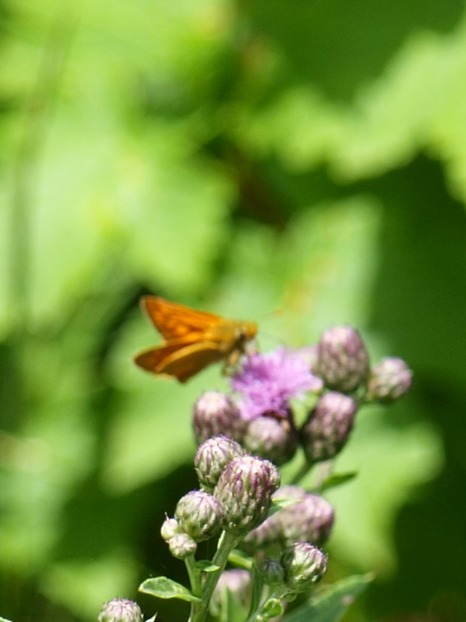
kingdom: Animalia
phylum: Arthropoda
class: Insecta
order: Lepidoptera
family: Hesperiidae
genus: Ochlodes
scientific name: Ochlodes venata
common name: Stor bredpande
